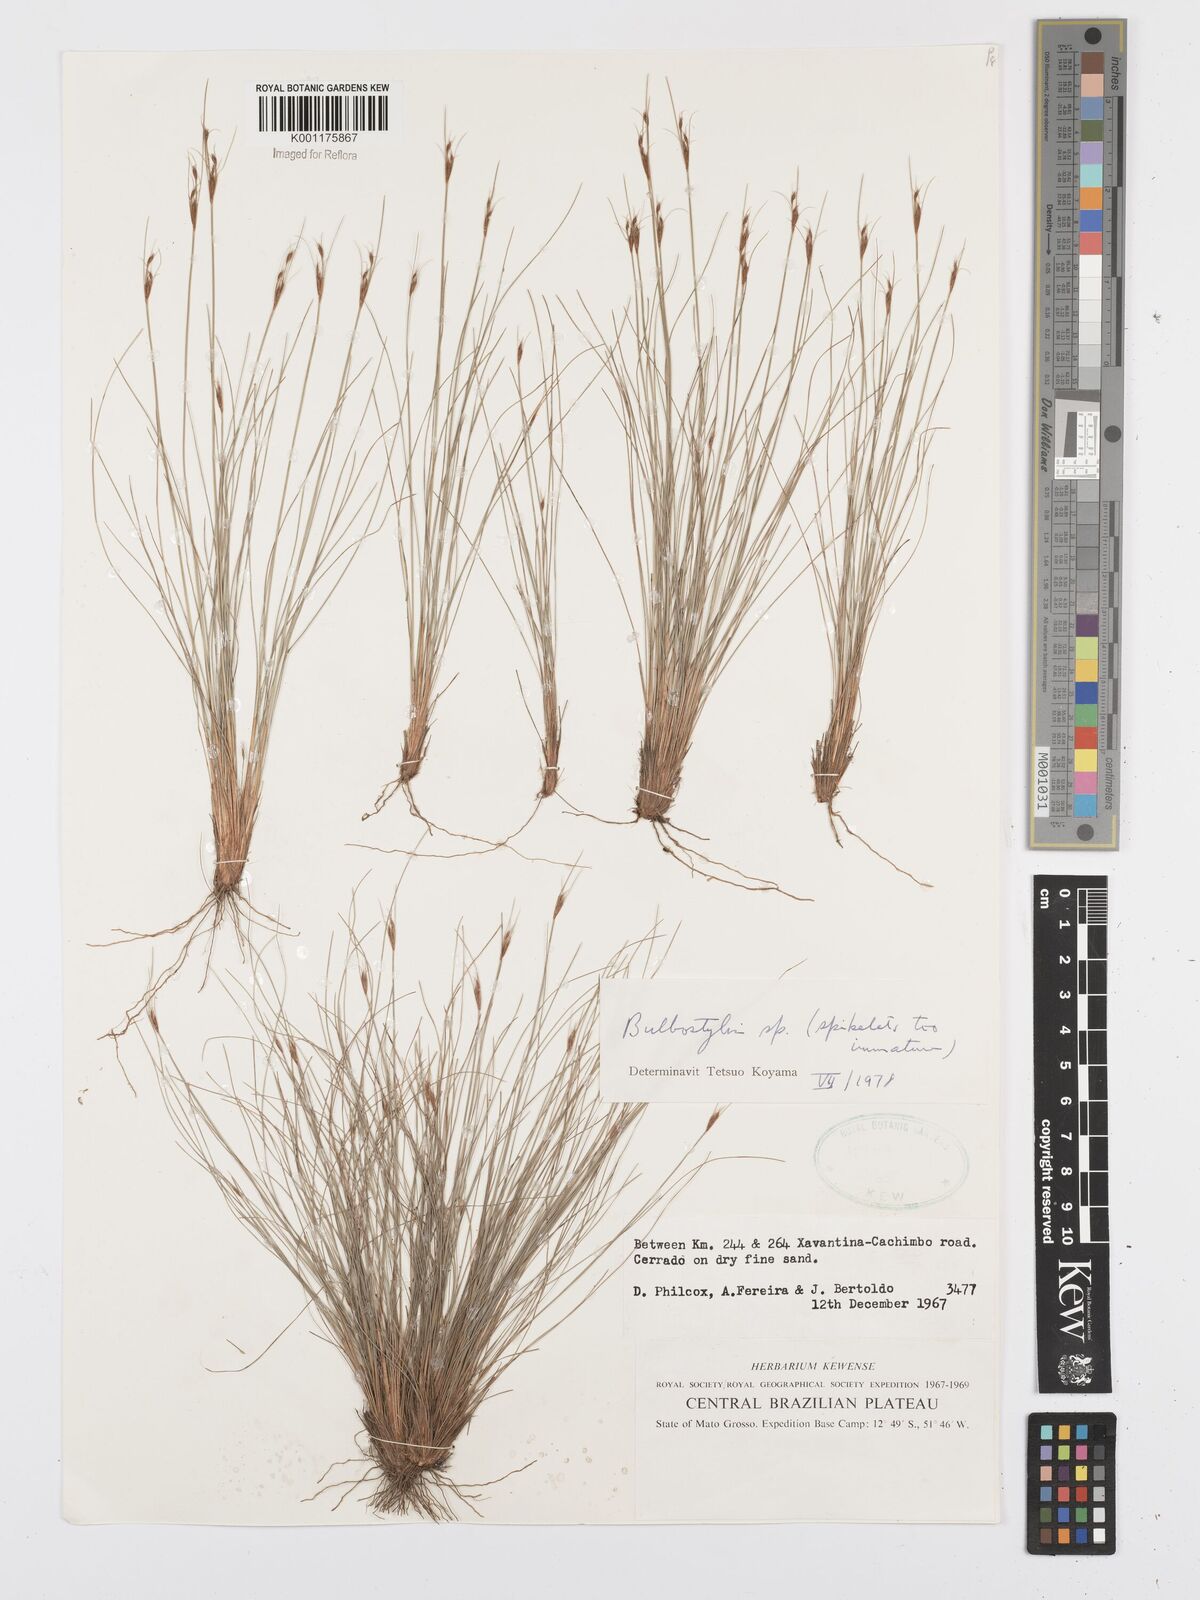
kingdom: Plantae
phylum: Tracheophyta
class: Liliopsida
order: Poales
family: Cyperaceae
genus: Bulbostylis
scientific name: Bulbostylis
